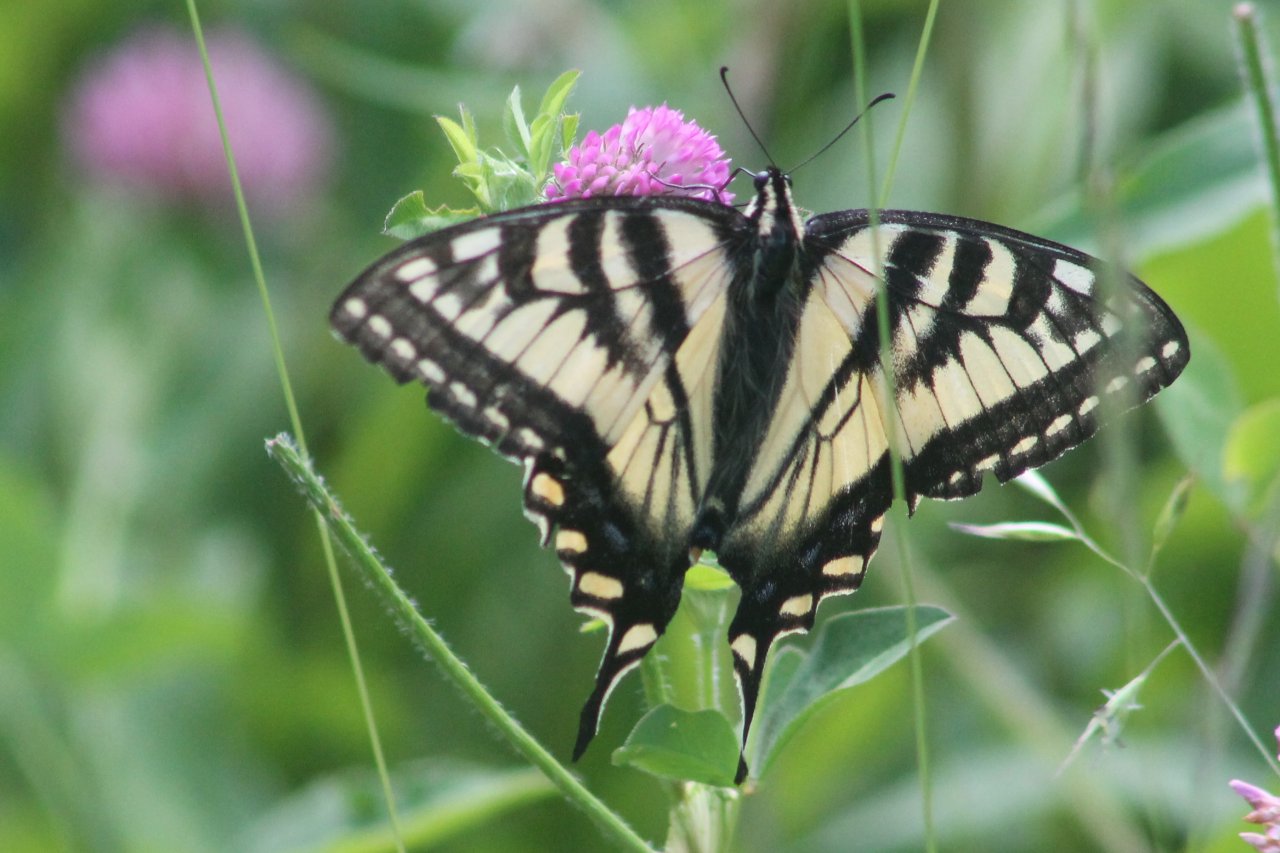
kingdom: Animalia
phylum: Arthropoda
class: Insecta
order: Lepidoptera
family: Papilionidae
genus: Pterourus
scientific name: Pterourus canadensis
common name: Canadian Tiger Swallowtail
